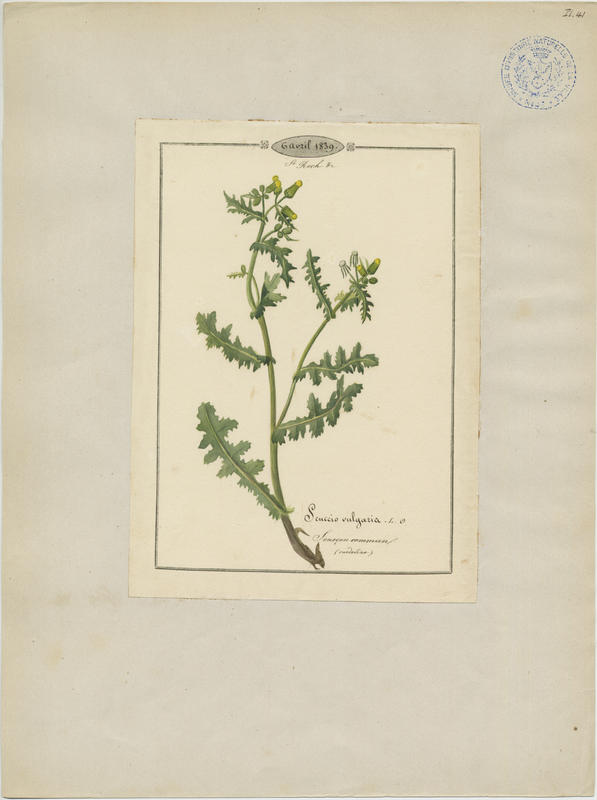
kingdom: Plantae
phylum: Tracheophyta
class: Magnoliopsida
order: Asterales
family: Asteraceae
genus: Senecio
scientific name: Senecio vulgaris
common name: Old-man-in-the-spring
